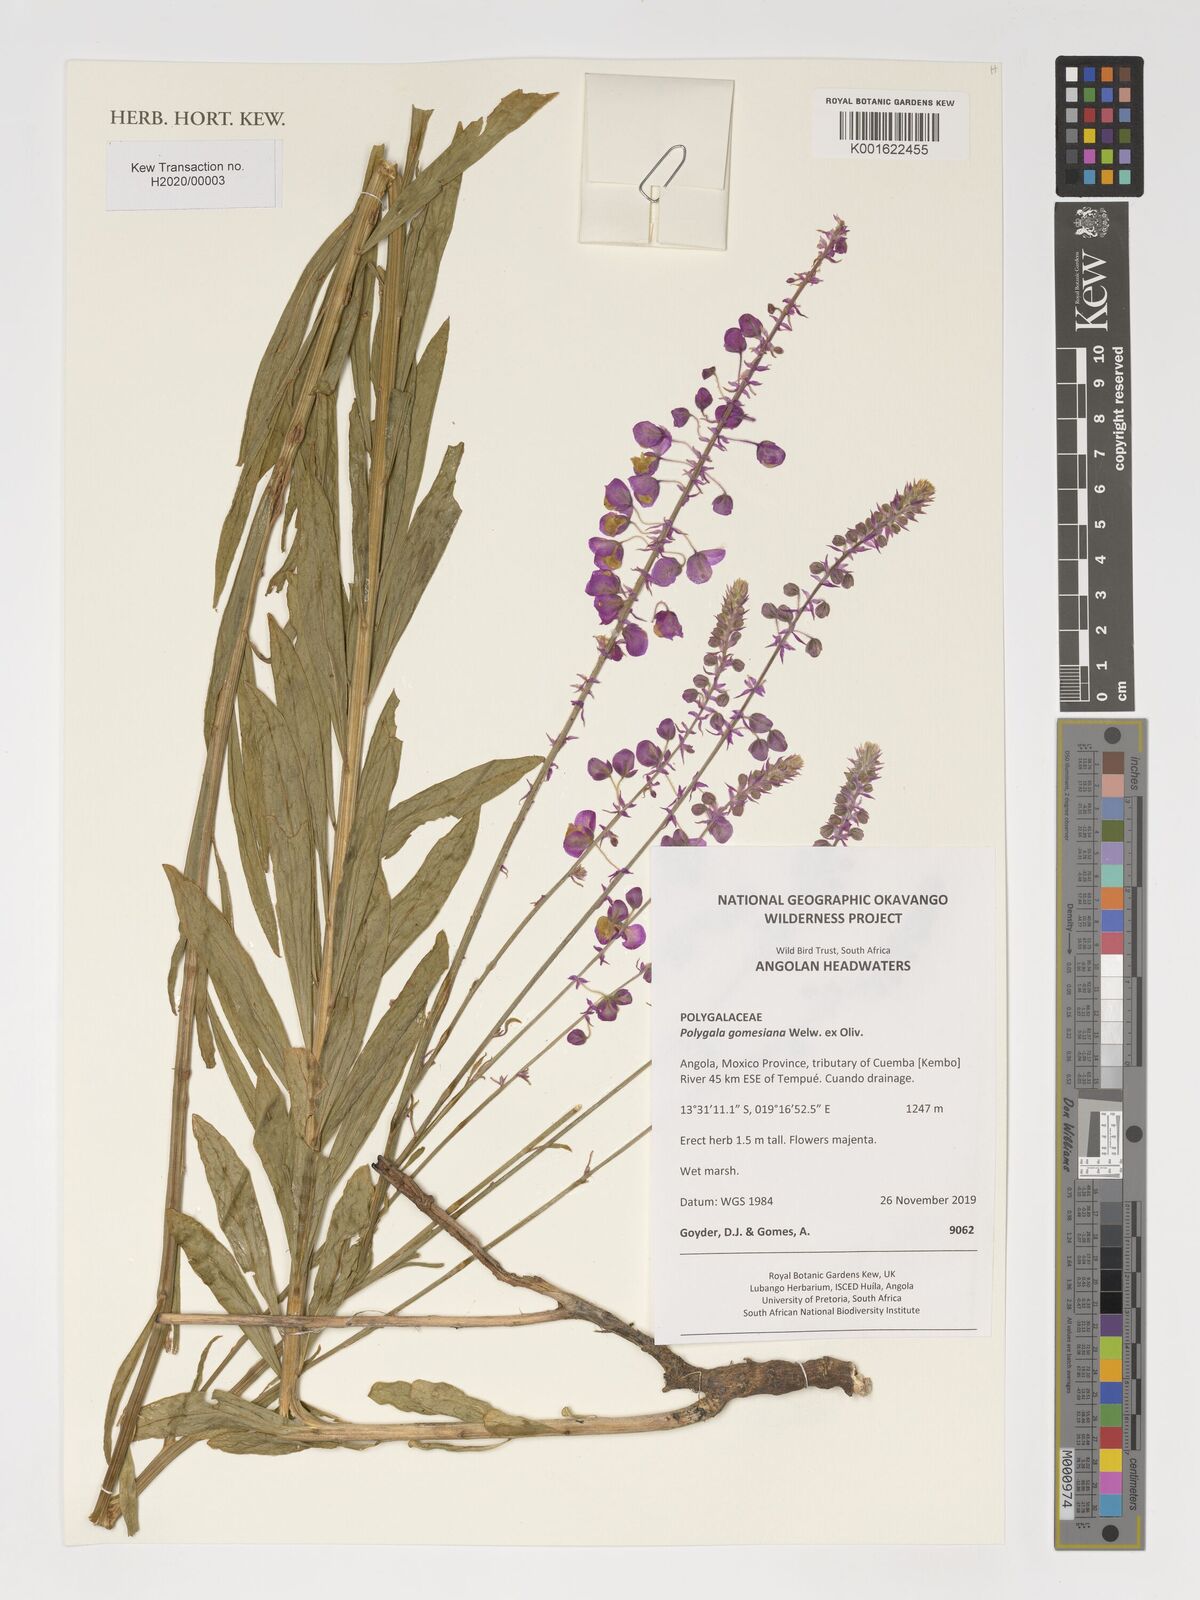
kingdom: Plantae
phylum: Tracheophyta
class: Magnoliopsida
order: Fabales
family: Polygalaceae
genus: Polygala
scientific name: Polygala gomesiana
